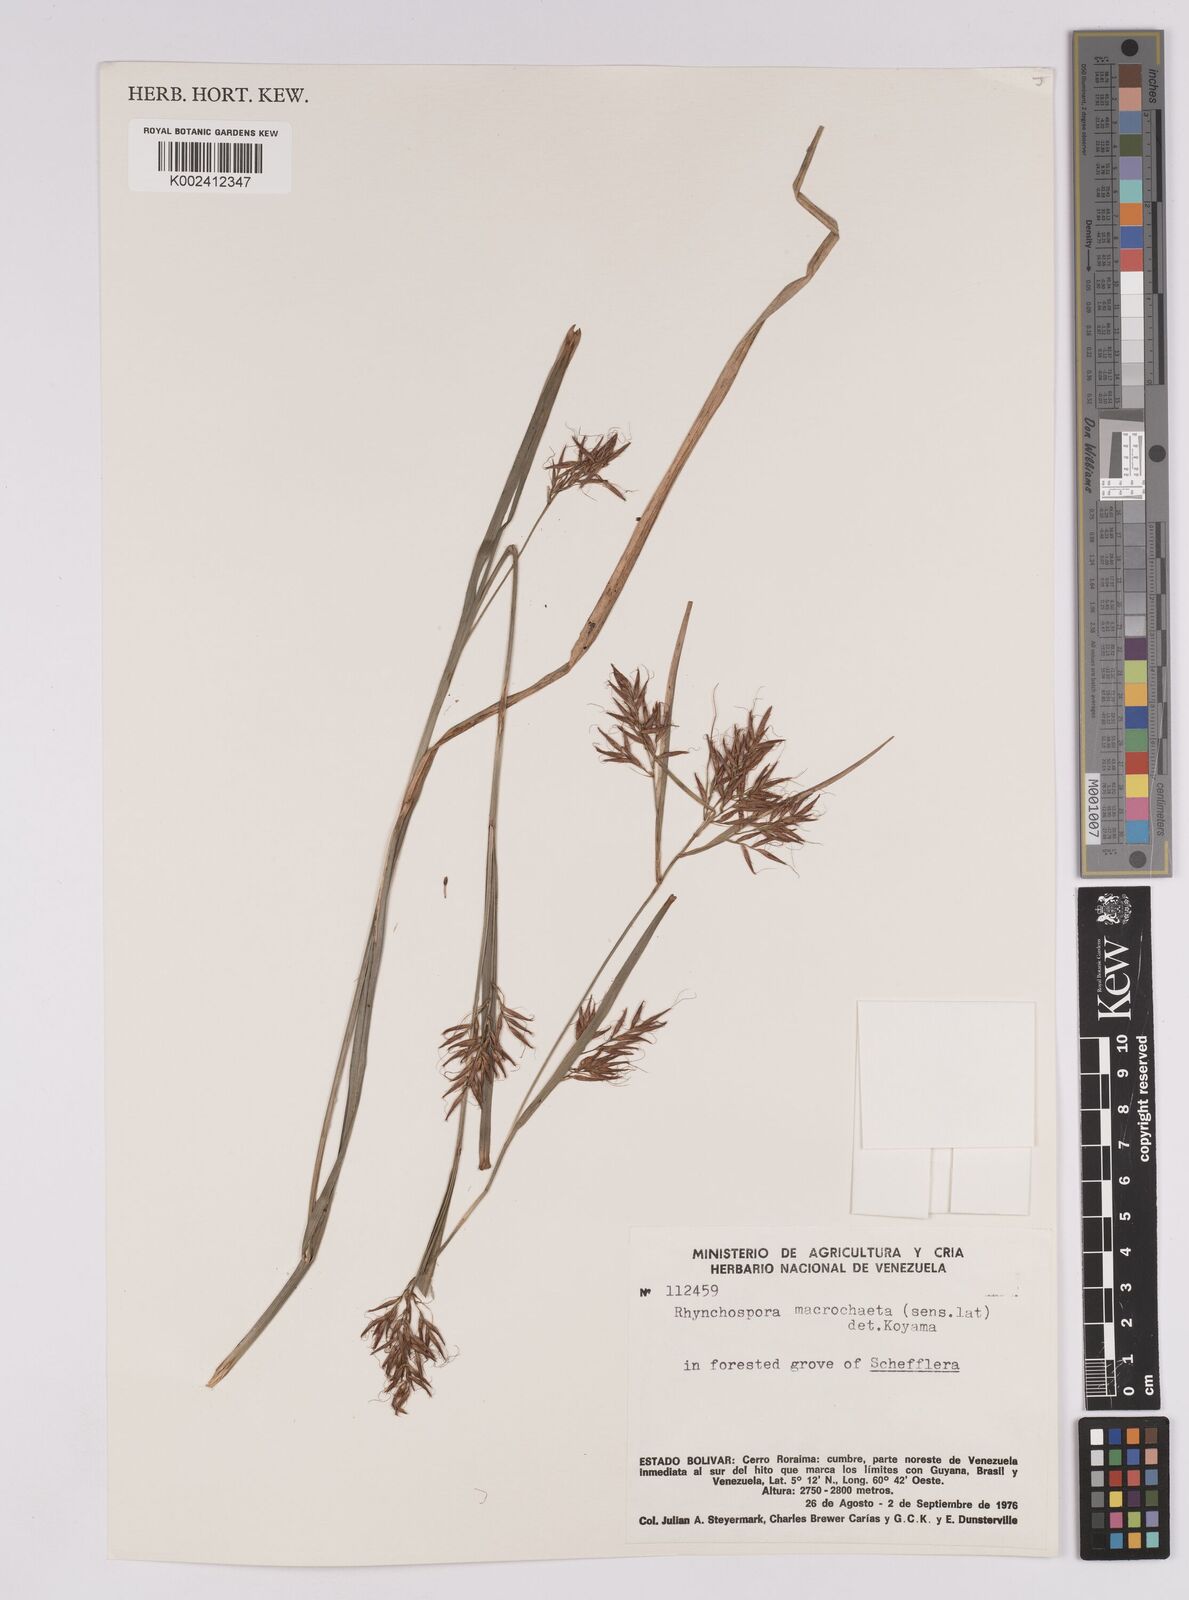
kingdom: Plantae
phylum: Tracheophyta
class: Liliopsida
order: Poales
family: Cyperaceae
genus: Rhynchospora
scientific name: Rhynchospora macrochaeta
